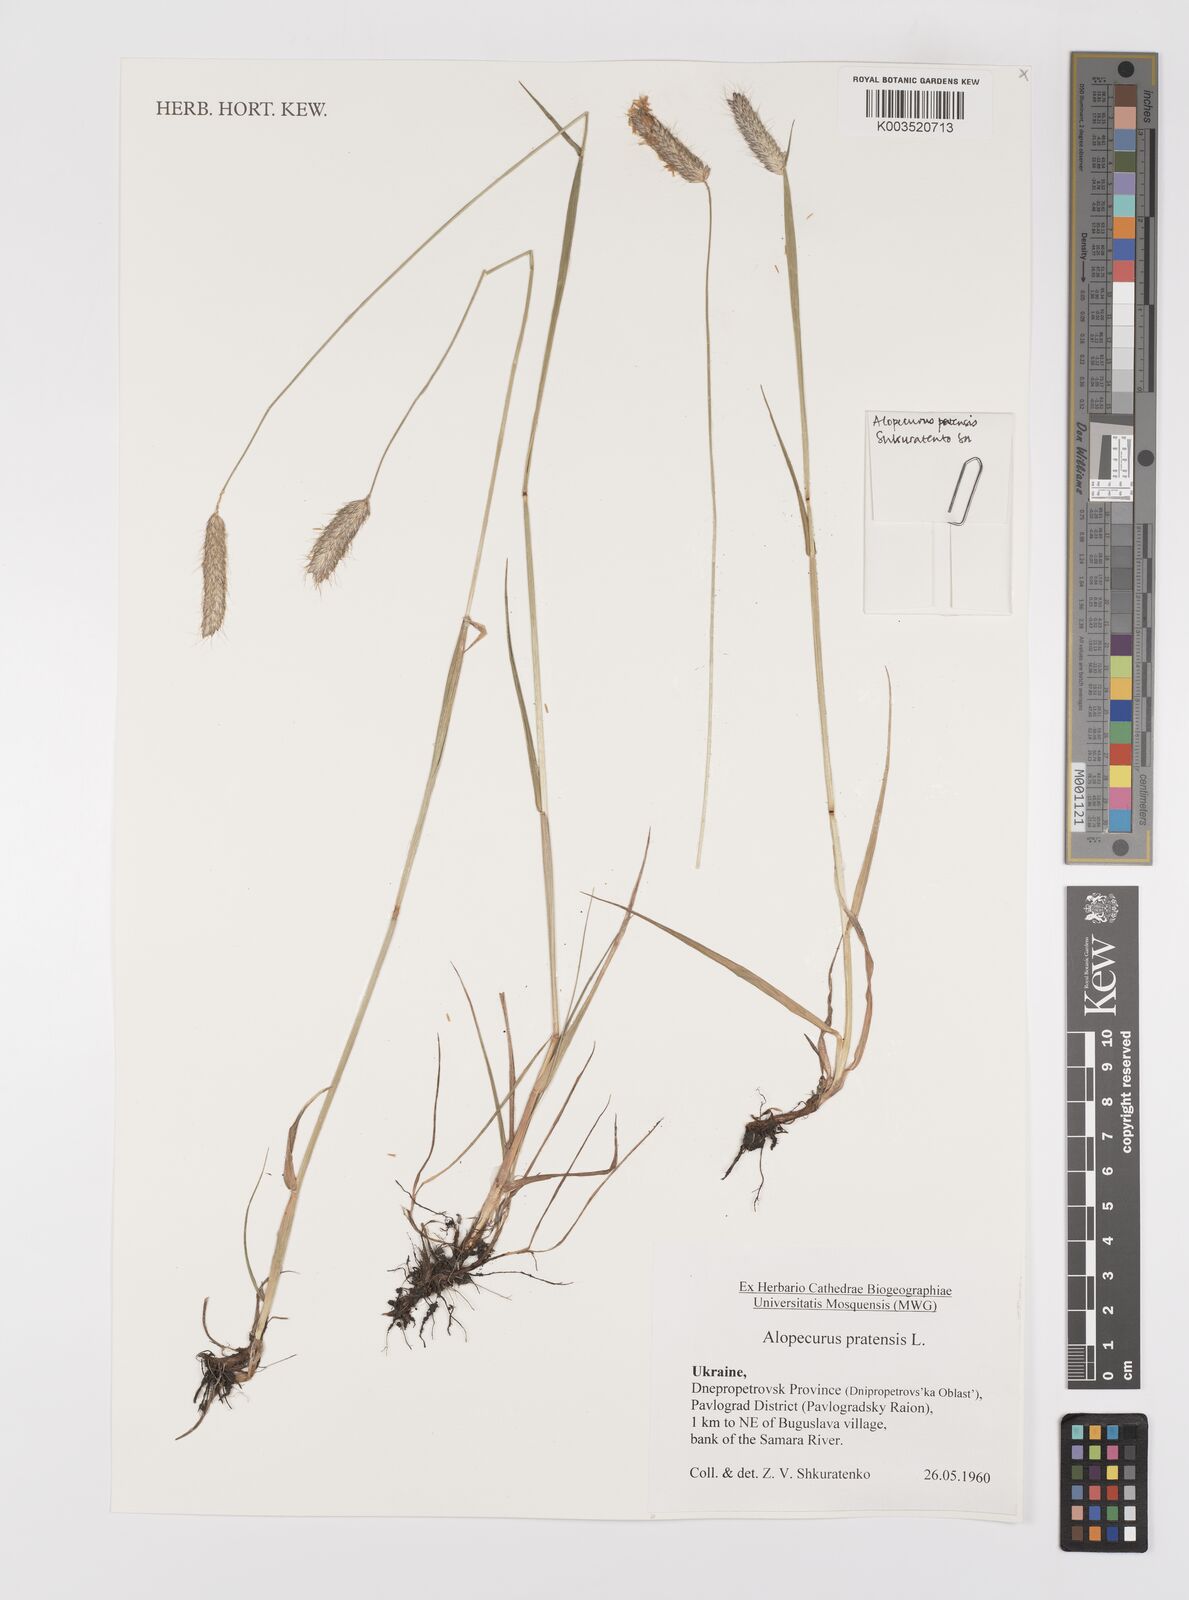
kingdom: Plantae
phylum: Tracheophyta
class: Liliopsida
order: Poales
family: Poaceae
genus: Alopecurus
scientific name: Alopecurus pratensis
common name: Meadow foxtail
